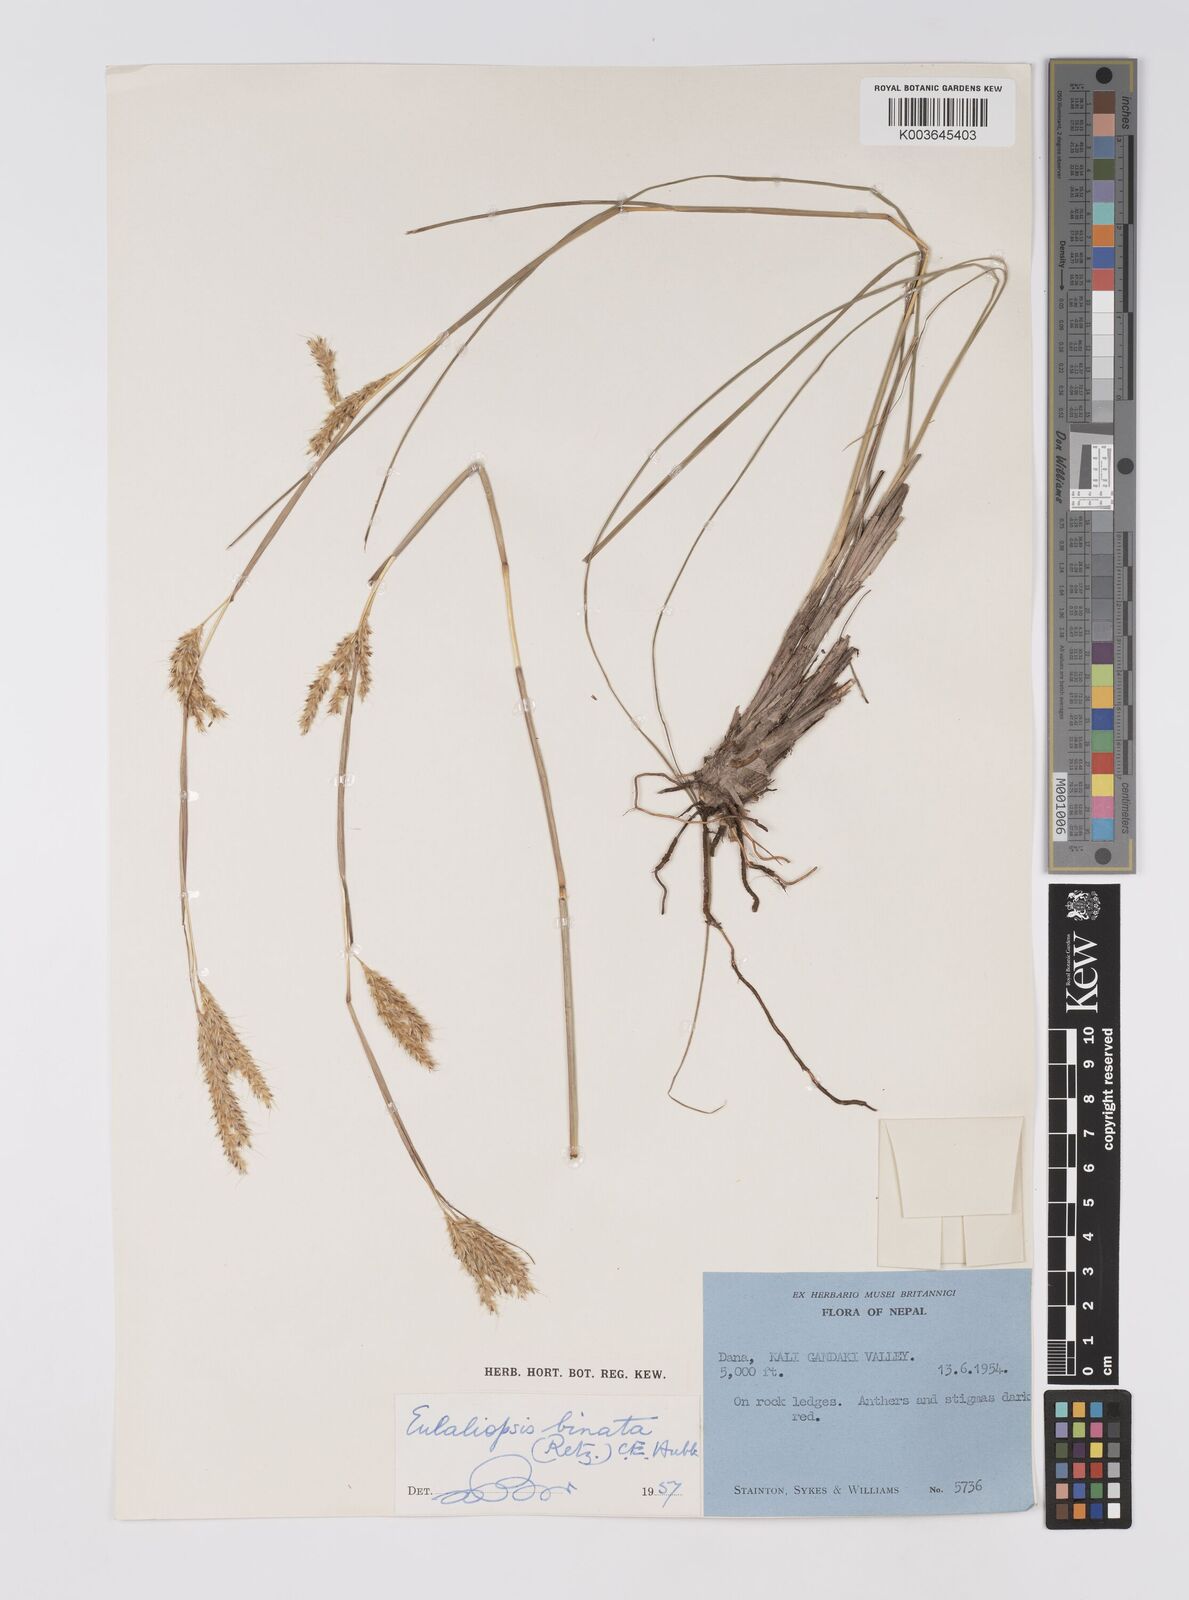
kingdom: Plantae
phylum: Tracheophyta
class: Liliopsida
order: Poales
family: Poaceae
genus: Eulaliopsis
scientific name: Eulaliopsis binata
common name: Baib grass
